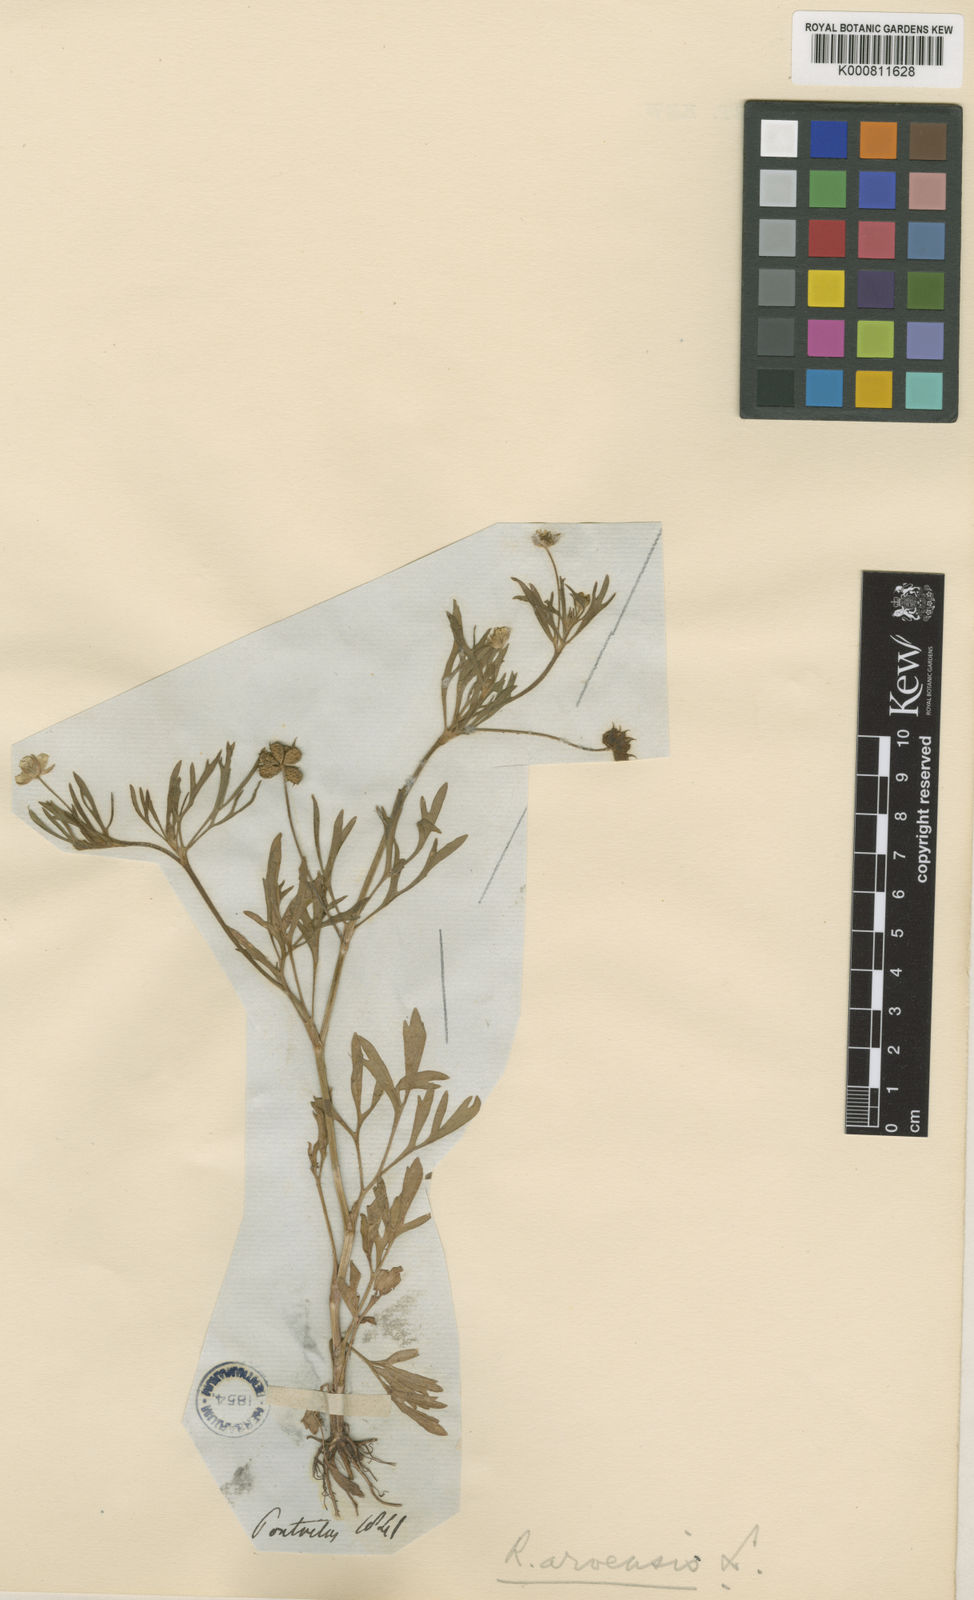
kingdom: Plantae
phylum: Tracheophyta
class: Magnoliopsida
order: Ranunculales
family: Ranunculaceae
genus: Ranunculus
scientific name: Ranunculus arvensis
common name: Corn buttercup
